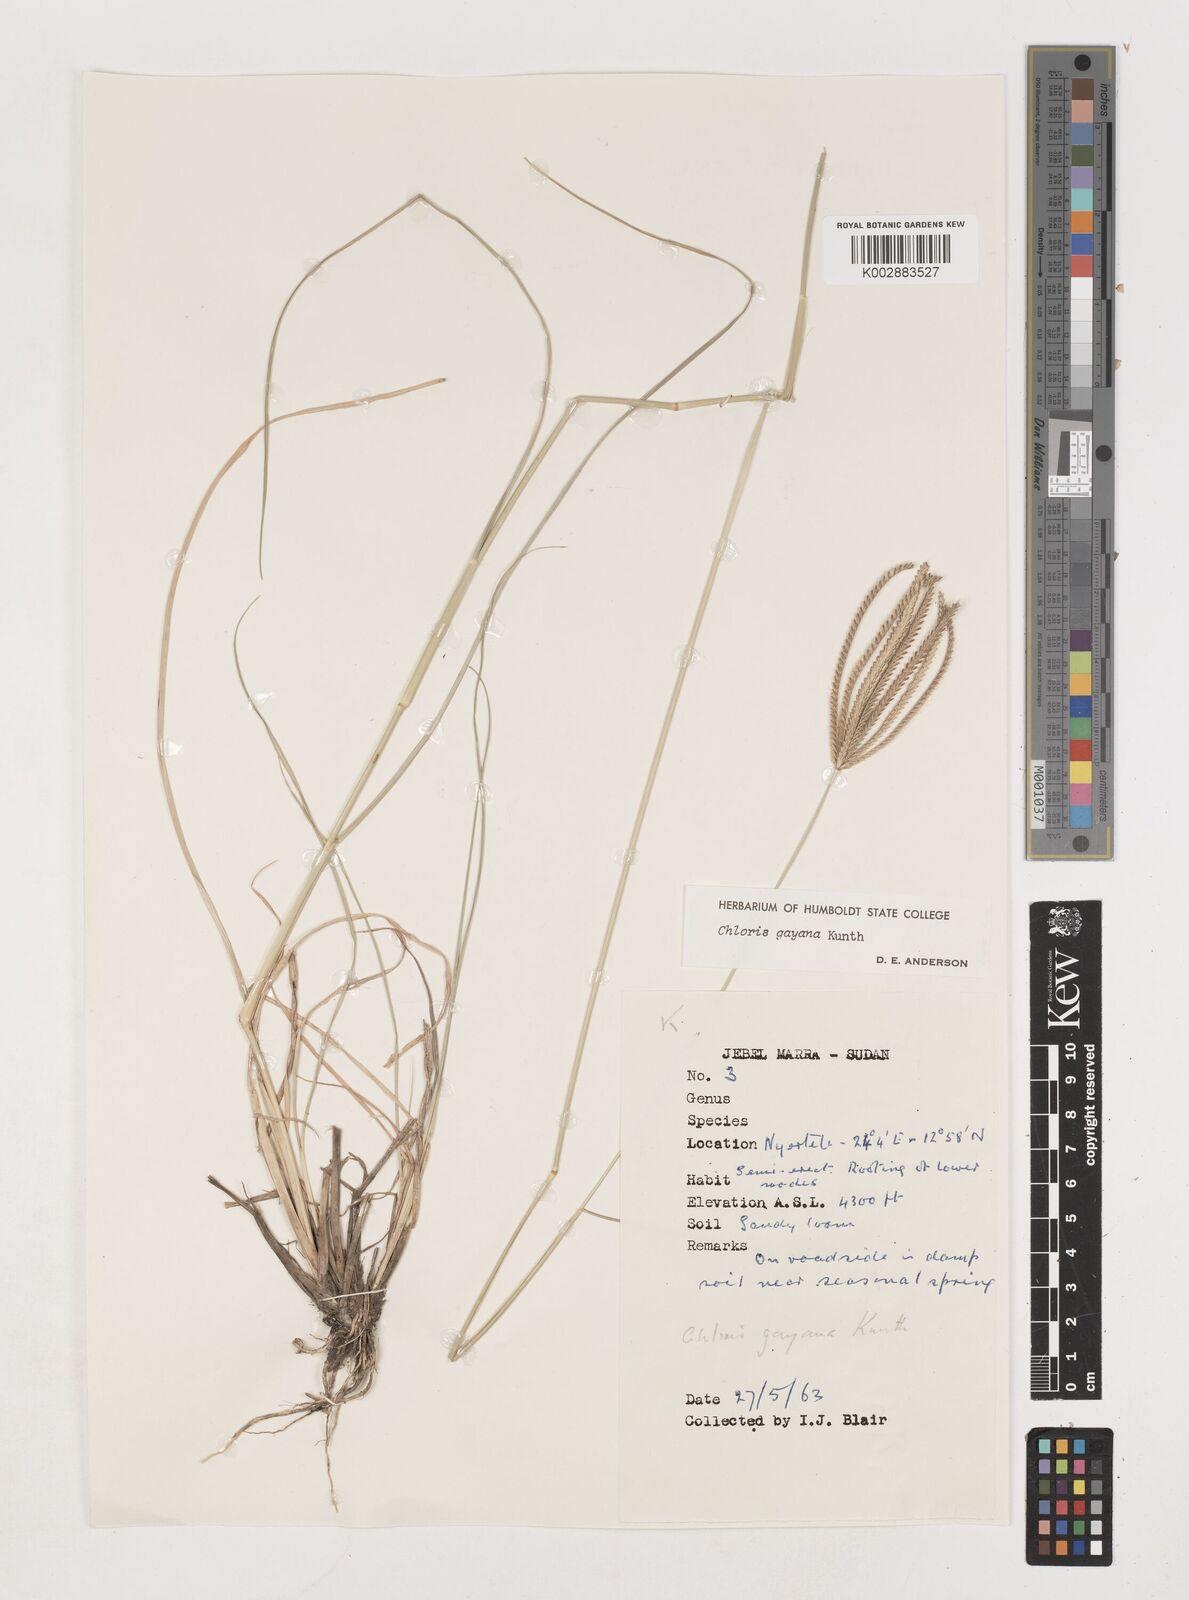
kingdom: Plantae
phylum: Tracheophyta
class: Liliopsida
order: Poales
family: Poaceae
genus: Chloris
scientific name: Chloris gayana
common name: Rhodes grass
